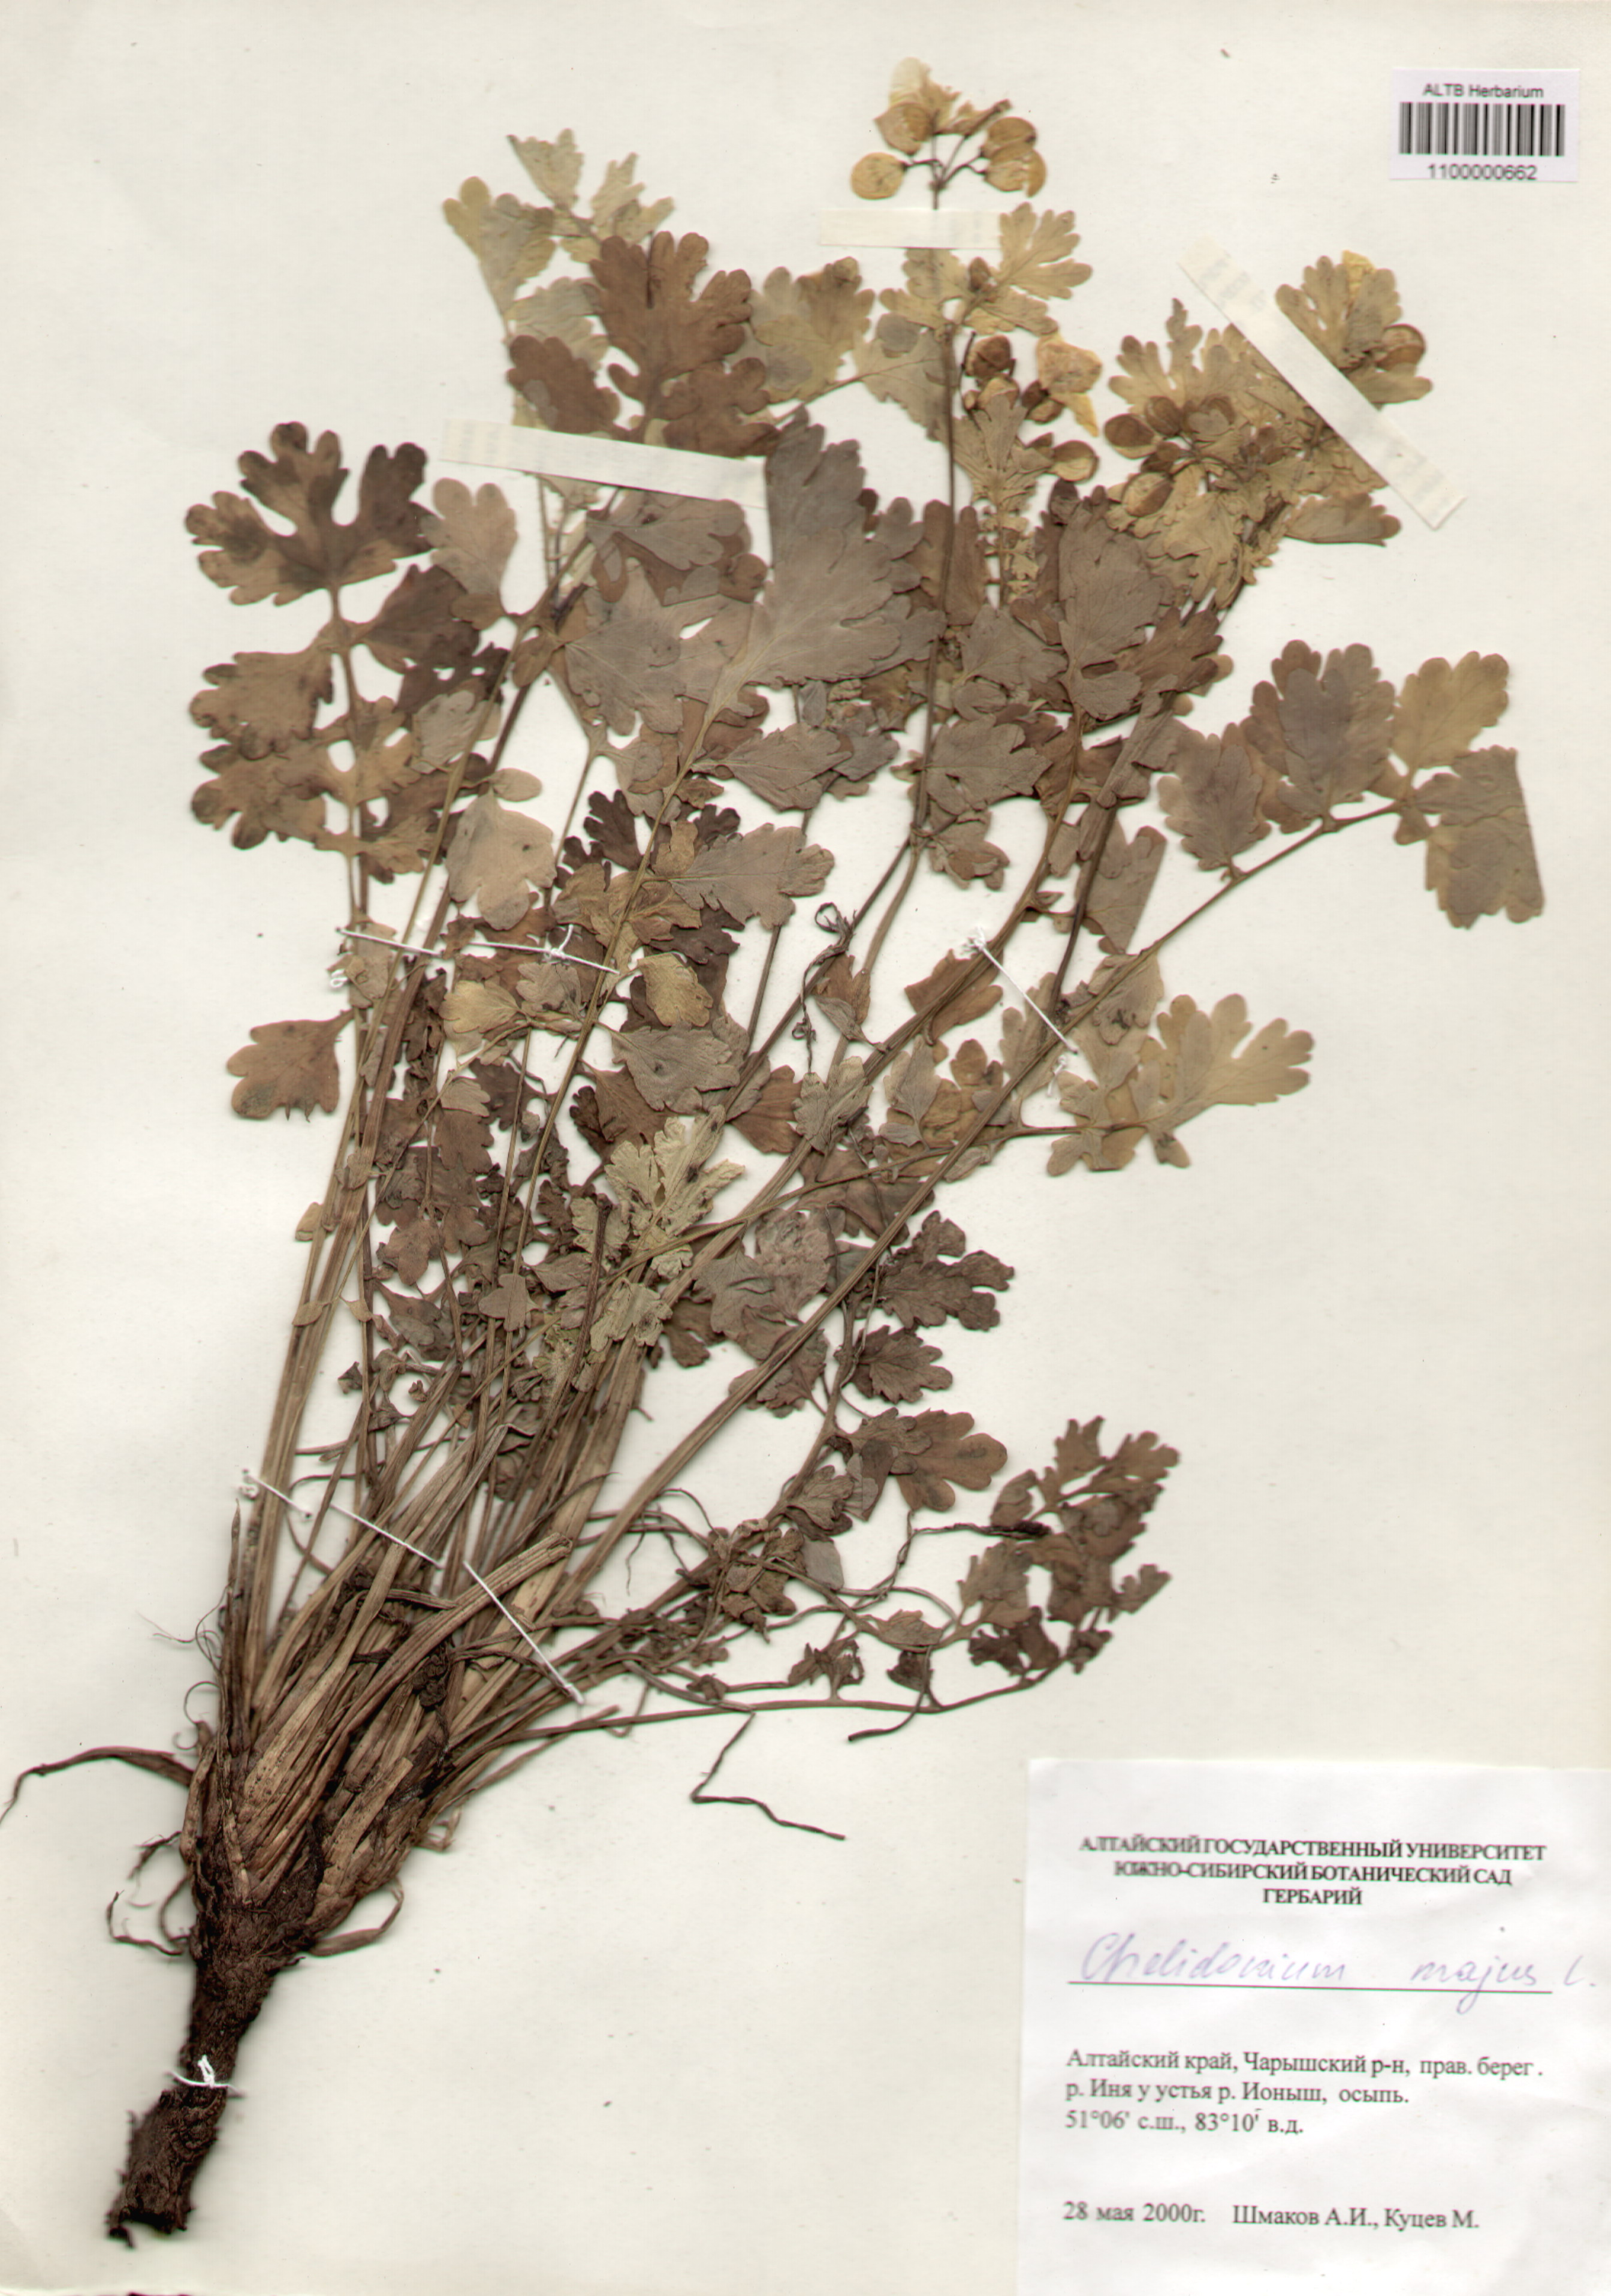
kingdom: Plantae
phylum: Tracheophyta
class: Magnoliopsida
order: Ranunculales
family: Papaveraceae
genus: Chelidonium
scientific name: Chelidonium majus
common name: Greater celandine
